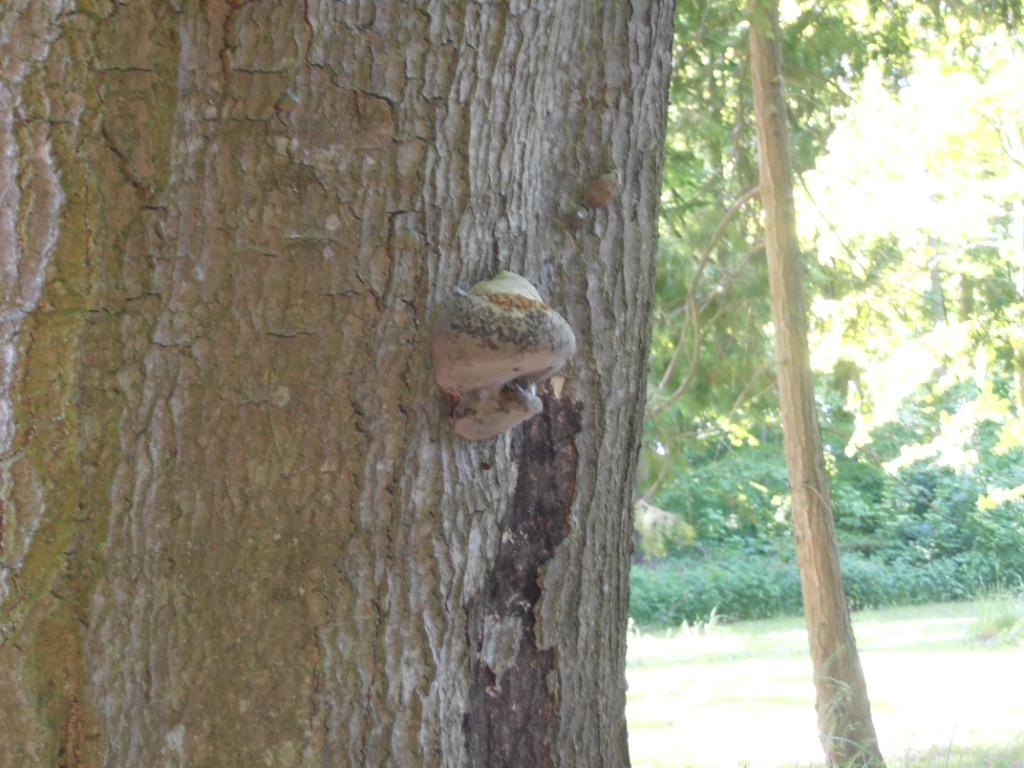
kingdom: Fungi
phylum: Basidiomycota
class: Agaricomycetes
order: Polyporales
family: Polyporaceae
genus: Fomes
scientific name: Fomes fomentarius
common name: tøndersvamp
